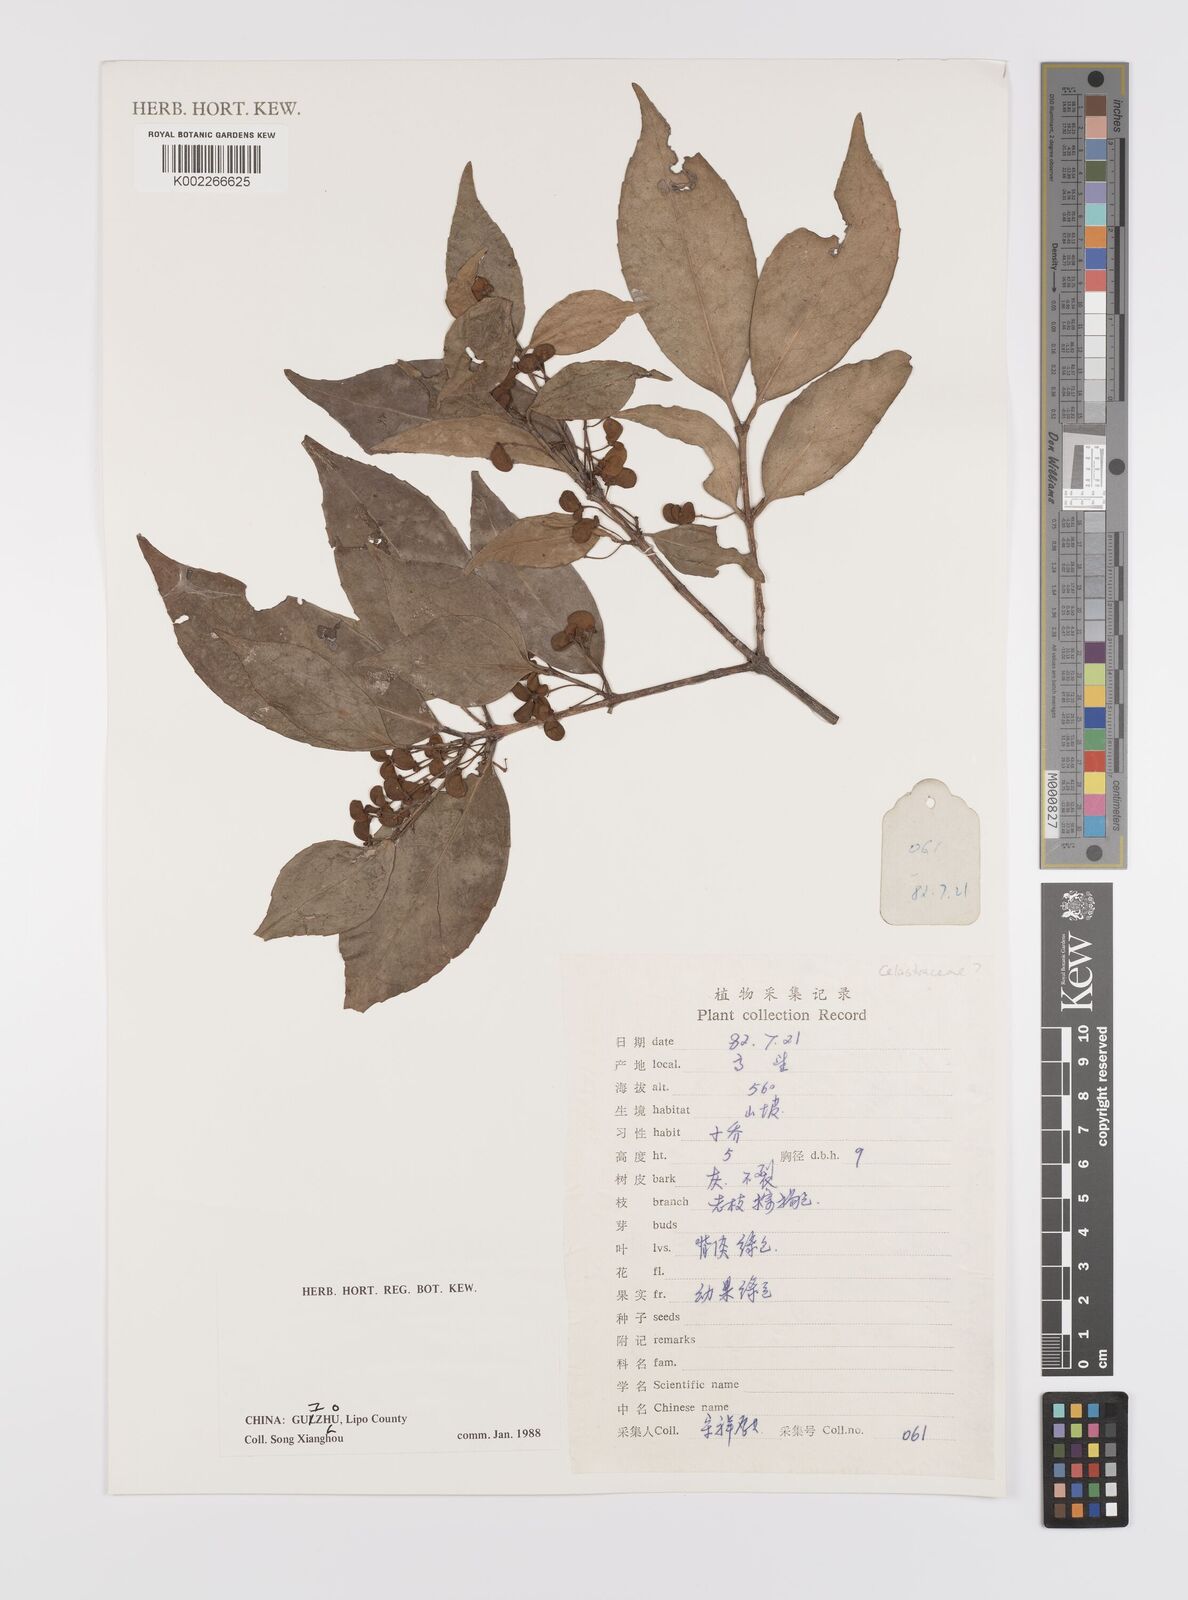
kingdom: Plantae
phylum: Tracheophyta
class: Magnoliopsida
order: Celastrales
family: Celastraceae
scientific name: Celastraceae
